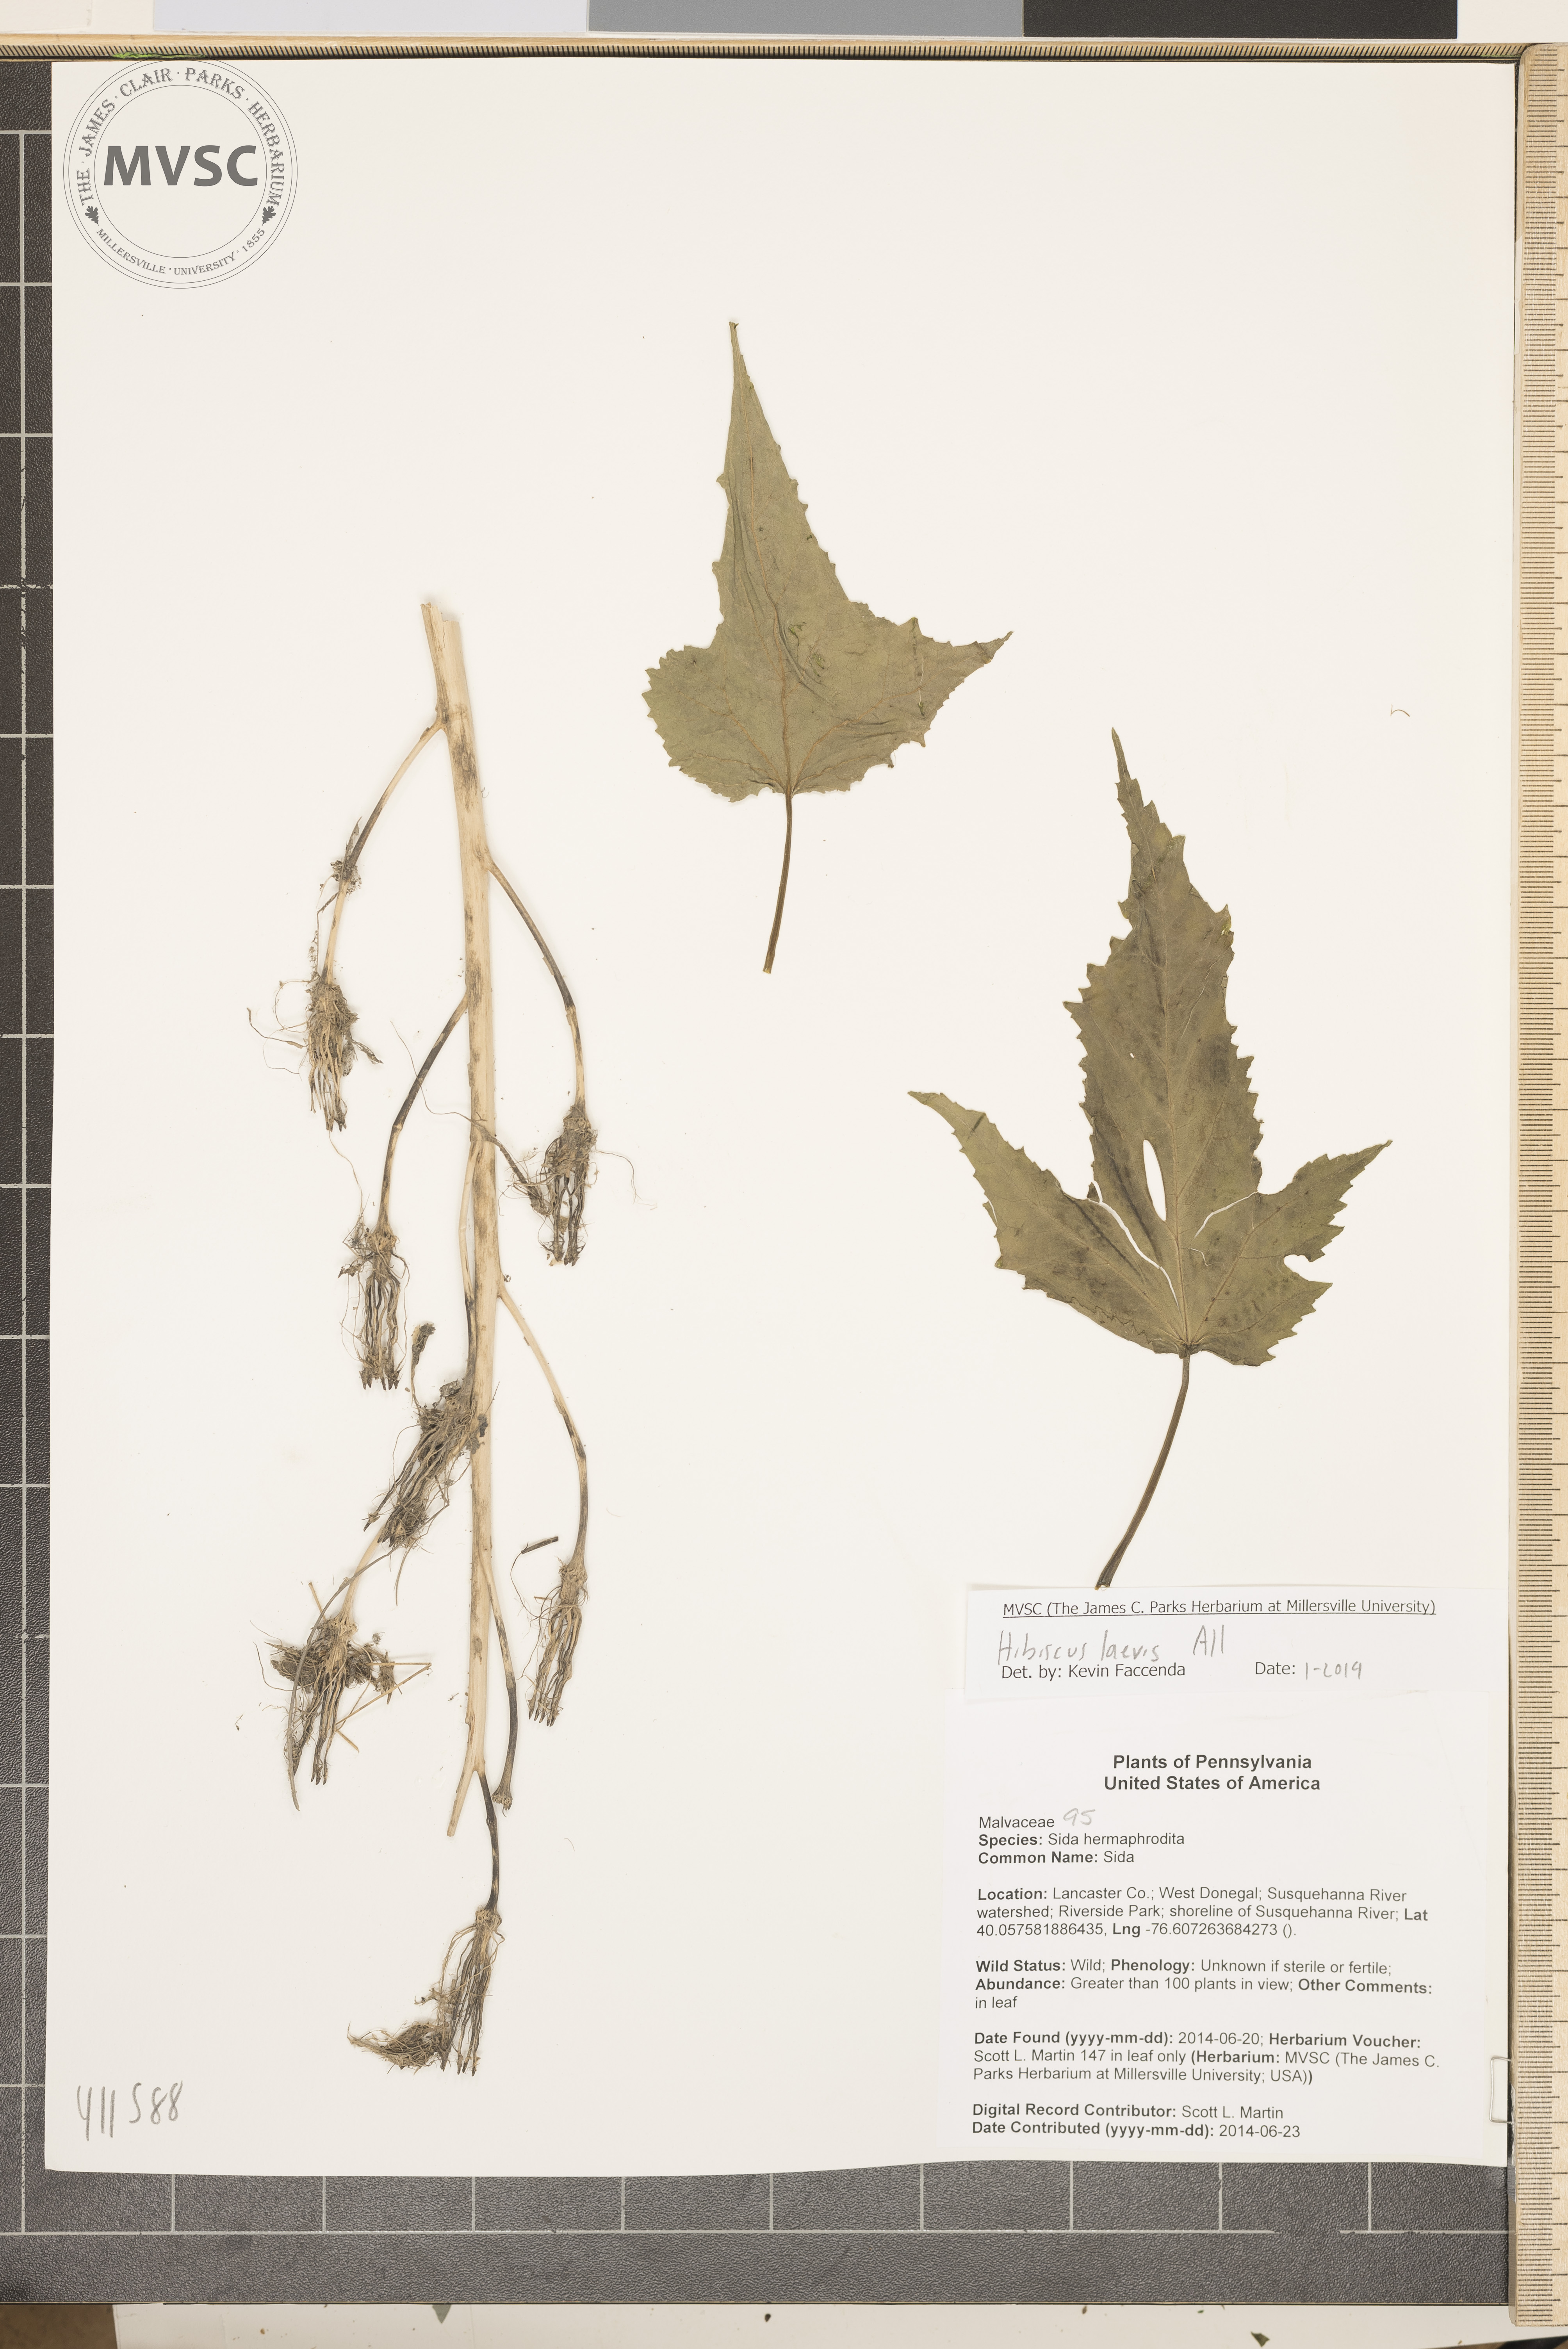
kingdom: Plantae
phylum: Tracheophyta
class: Magnoliopsida
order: Malvales
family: Malvaceae
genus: Hibiscus
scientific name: Hibiscus laevis
